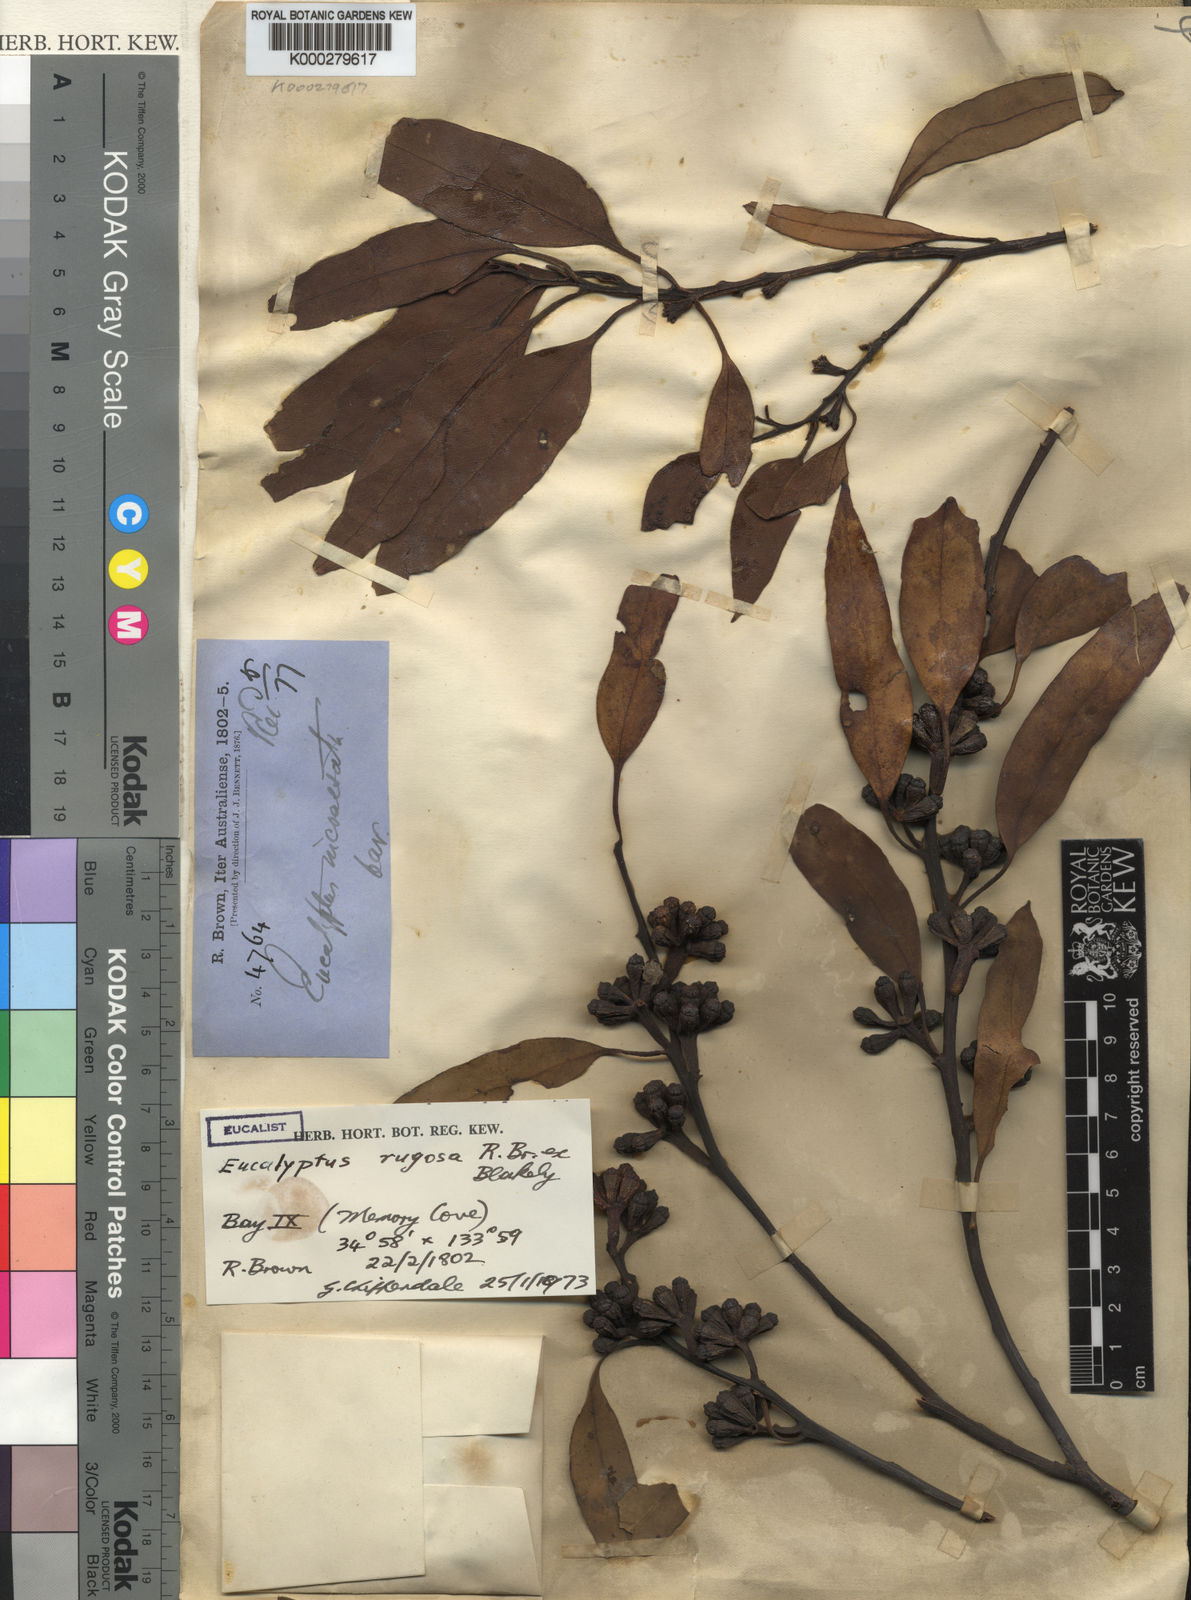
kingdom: Plantae
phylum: Tracheophyta
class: Magnoliopsida
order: Myrtales
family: Myrtaceae
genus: Eucalyptus
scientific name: Eucalyptus rugosa
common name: Kingscote mallee
